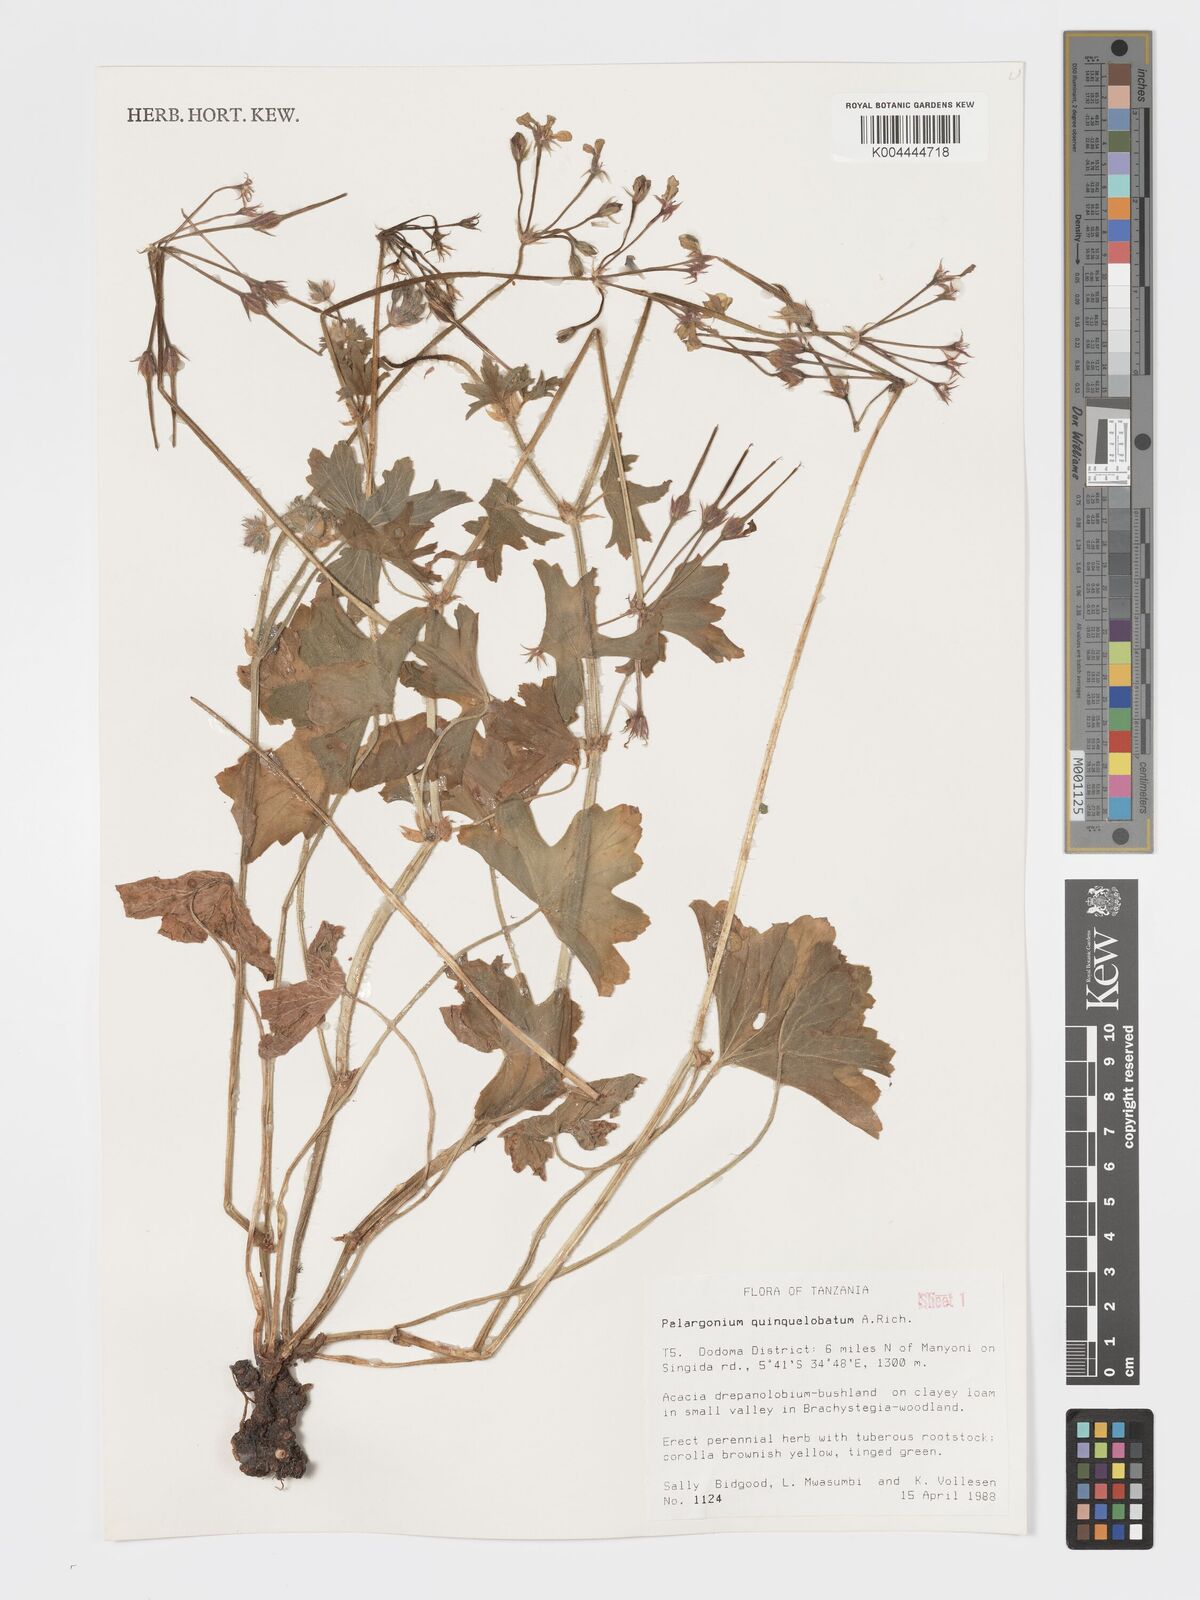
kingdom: Plantae
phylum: Tracheophyta
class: Magnoliopsida
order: Geraniales
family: Geraniaceae
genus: Pelargonium
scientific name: Pelargonium quinquelobatum
